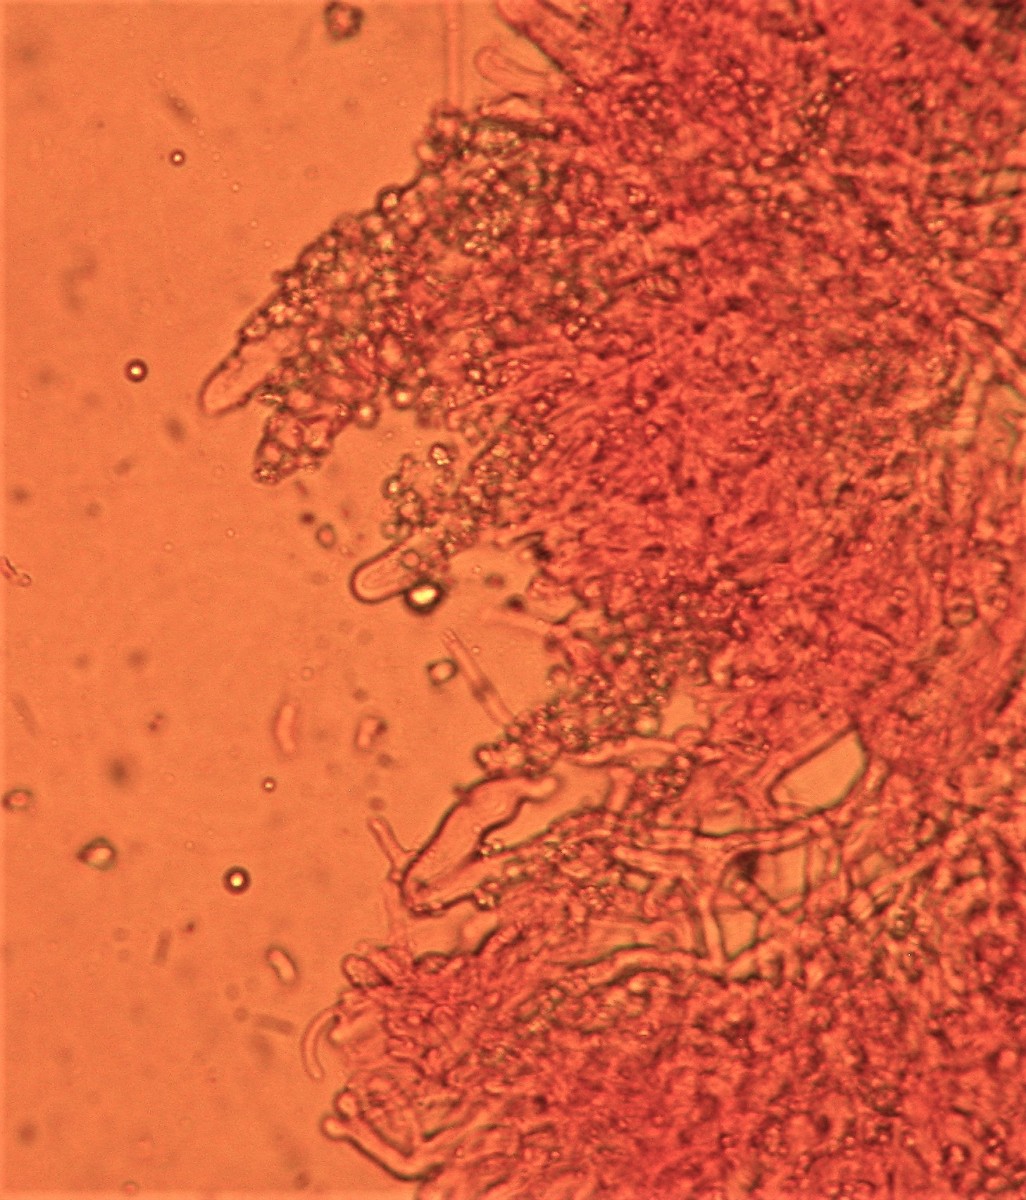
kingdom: Fungi
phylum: Basidiomycota
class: Agaricomycetes
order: Polyporales
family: Hyphodermataceae
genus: Hyphoderma
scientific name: Hyphoderma setigerum
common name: håret kalkskind
